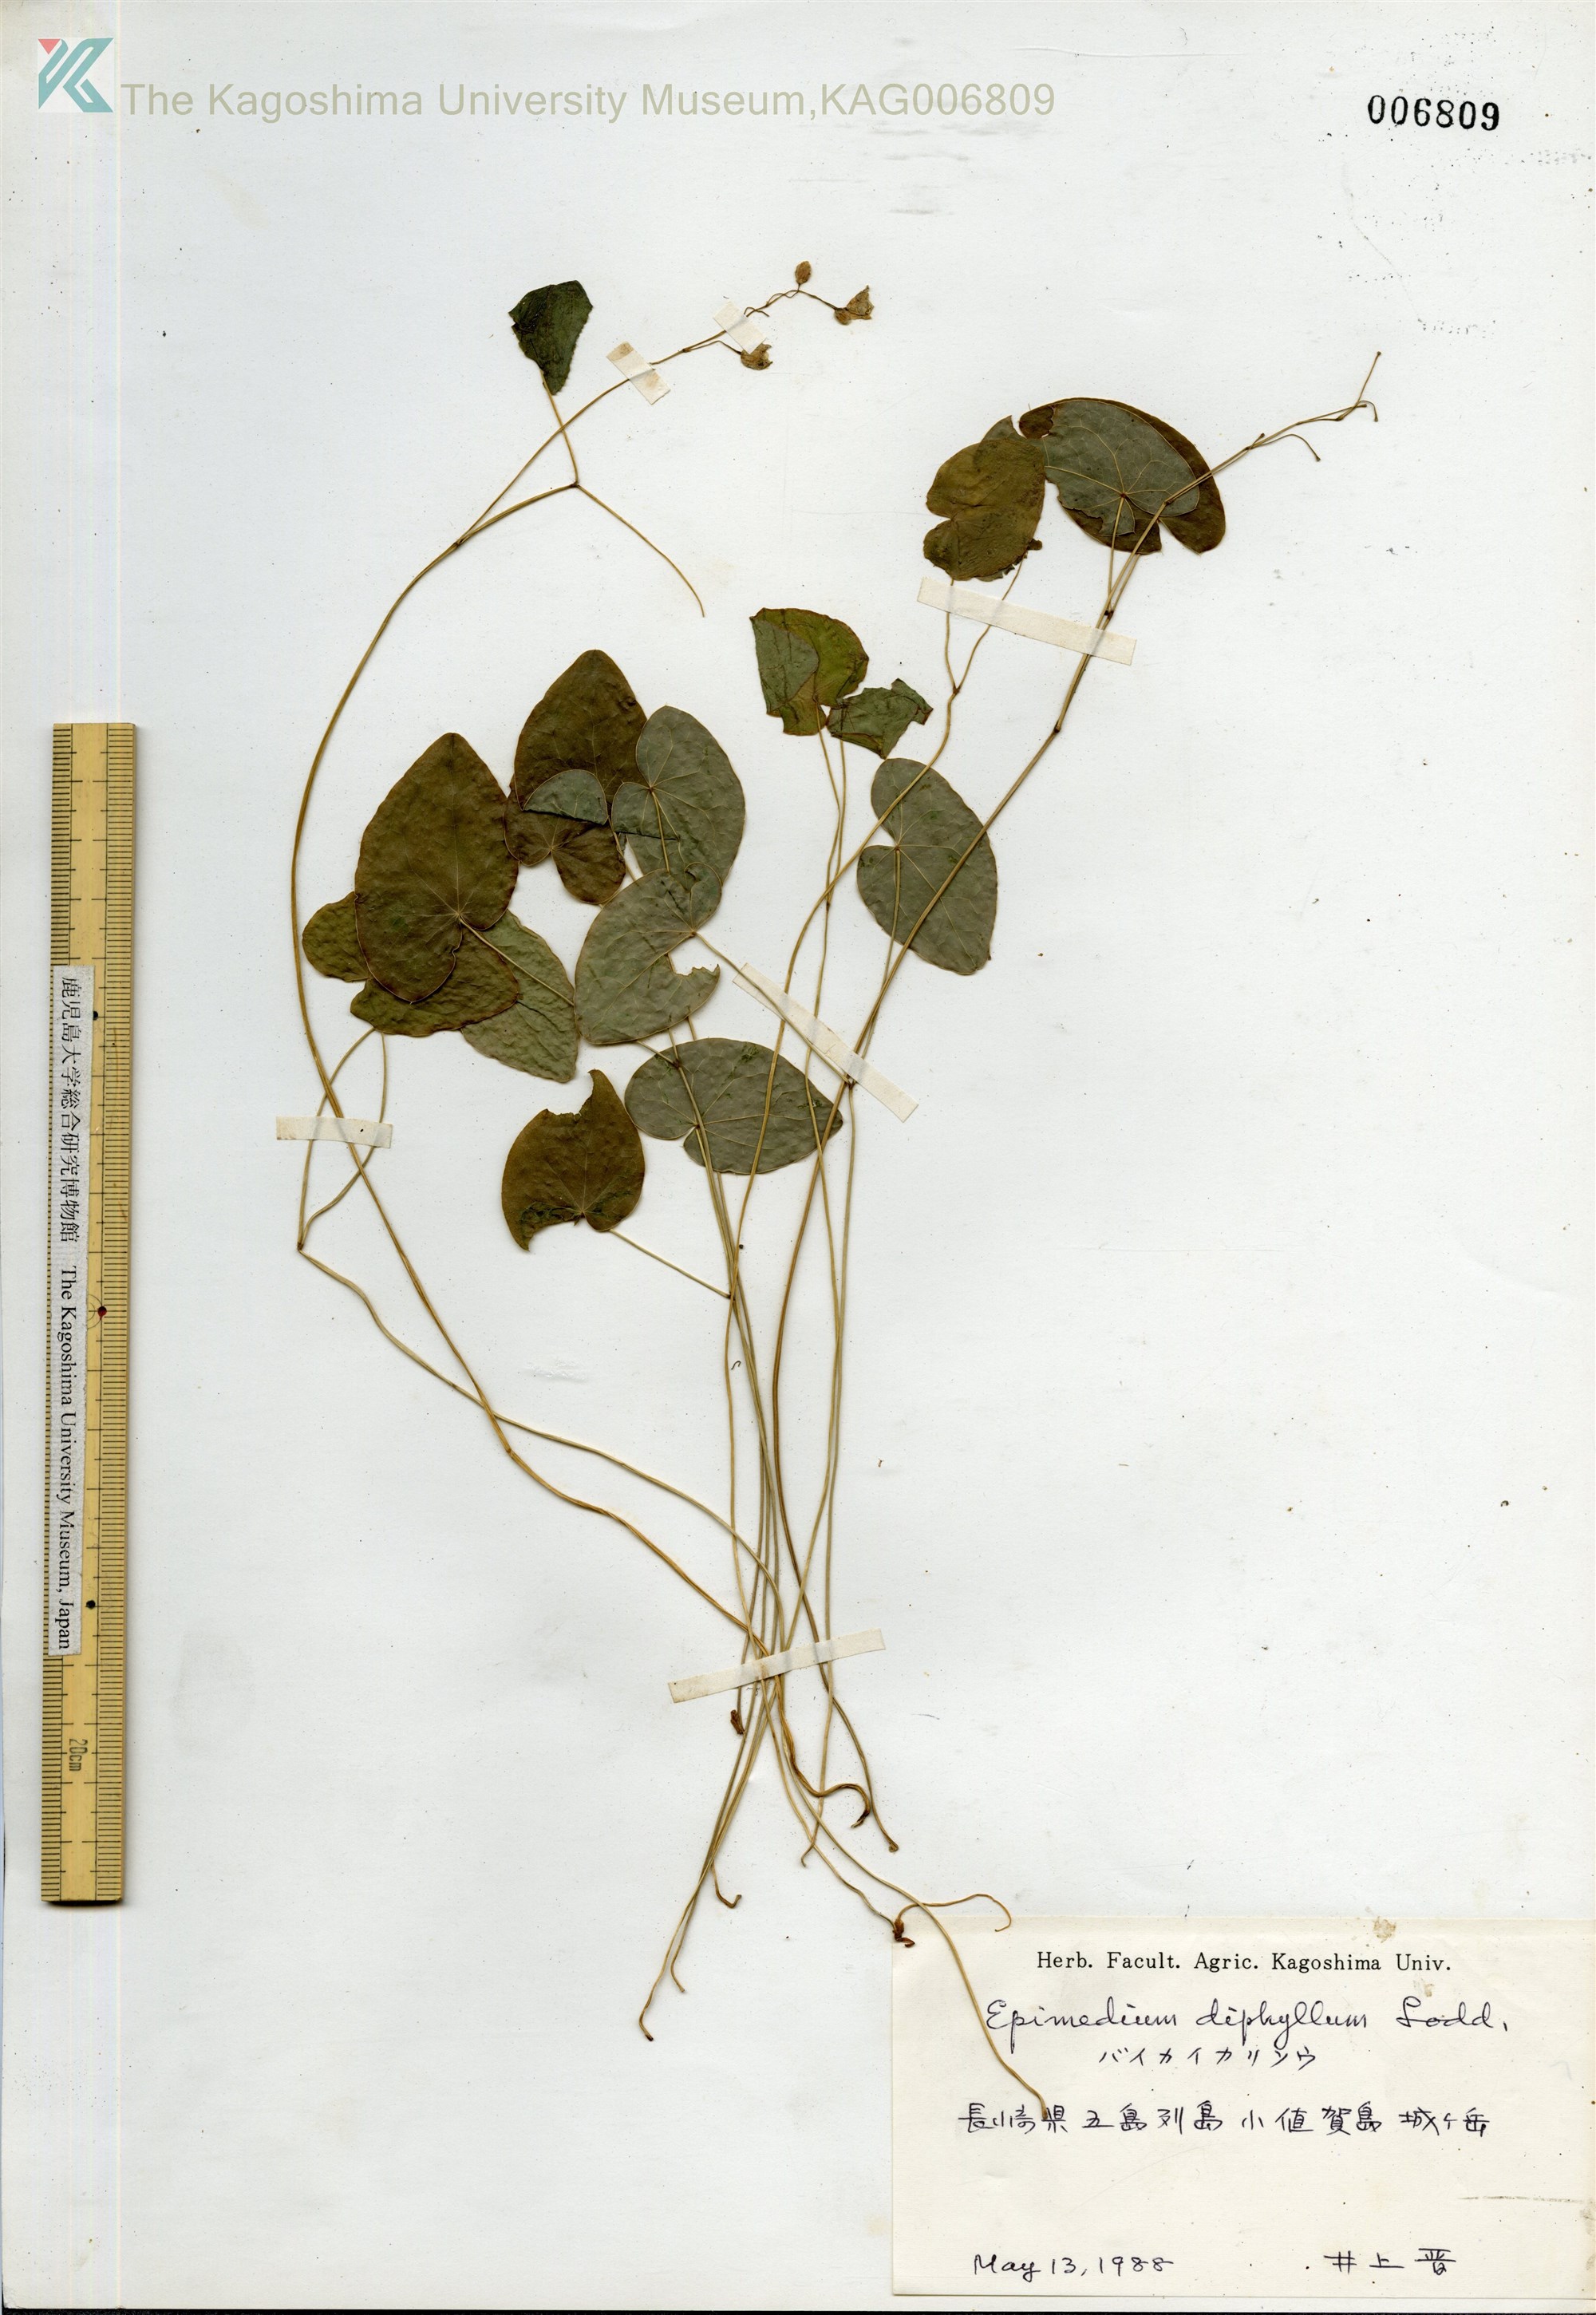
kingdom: Plantae
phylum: Tracheophyta
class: Magnoliopsida
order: Ranunculales
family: Berberidaceae
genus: Epimedium
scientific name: Epimedium diphyllum
